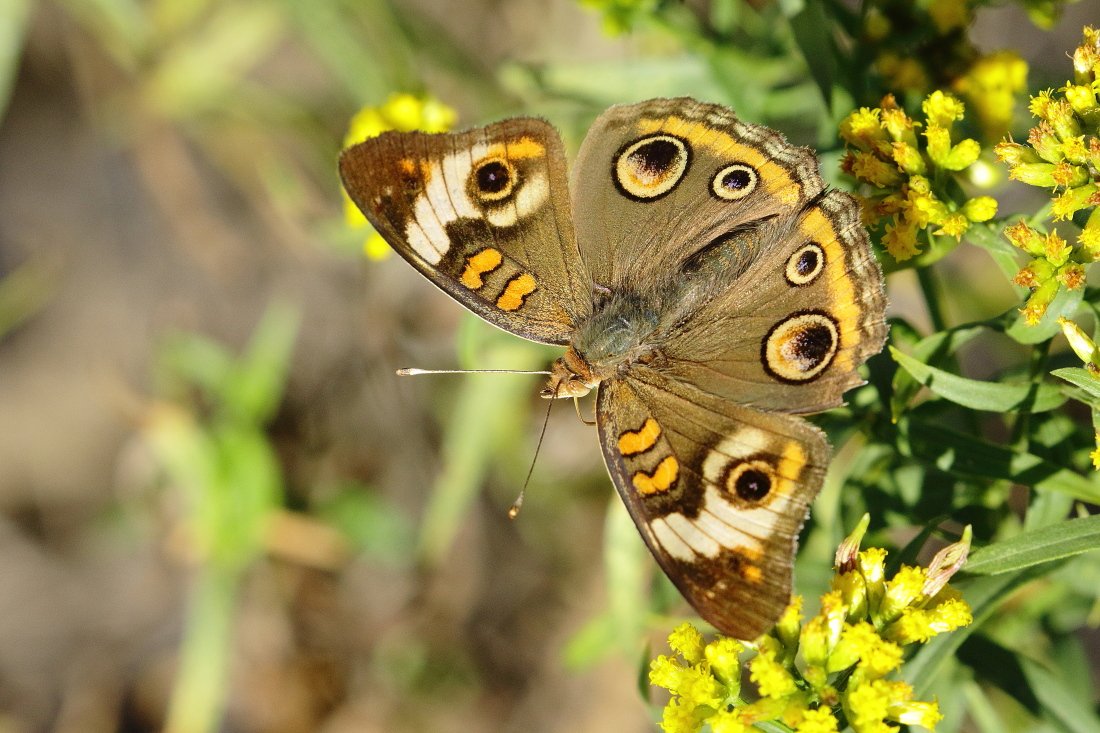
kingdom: Animalia
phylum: Arthropoda
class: Insecta
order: Lepidoptera
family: Nymphalidae
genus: Junonia
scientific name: Junonia coenia
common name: Common Buckeye
